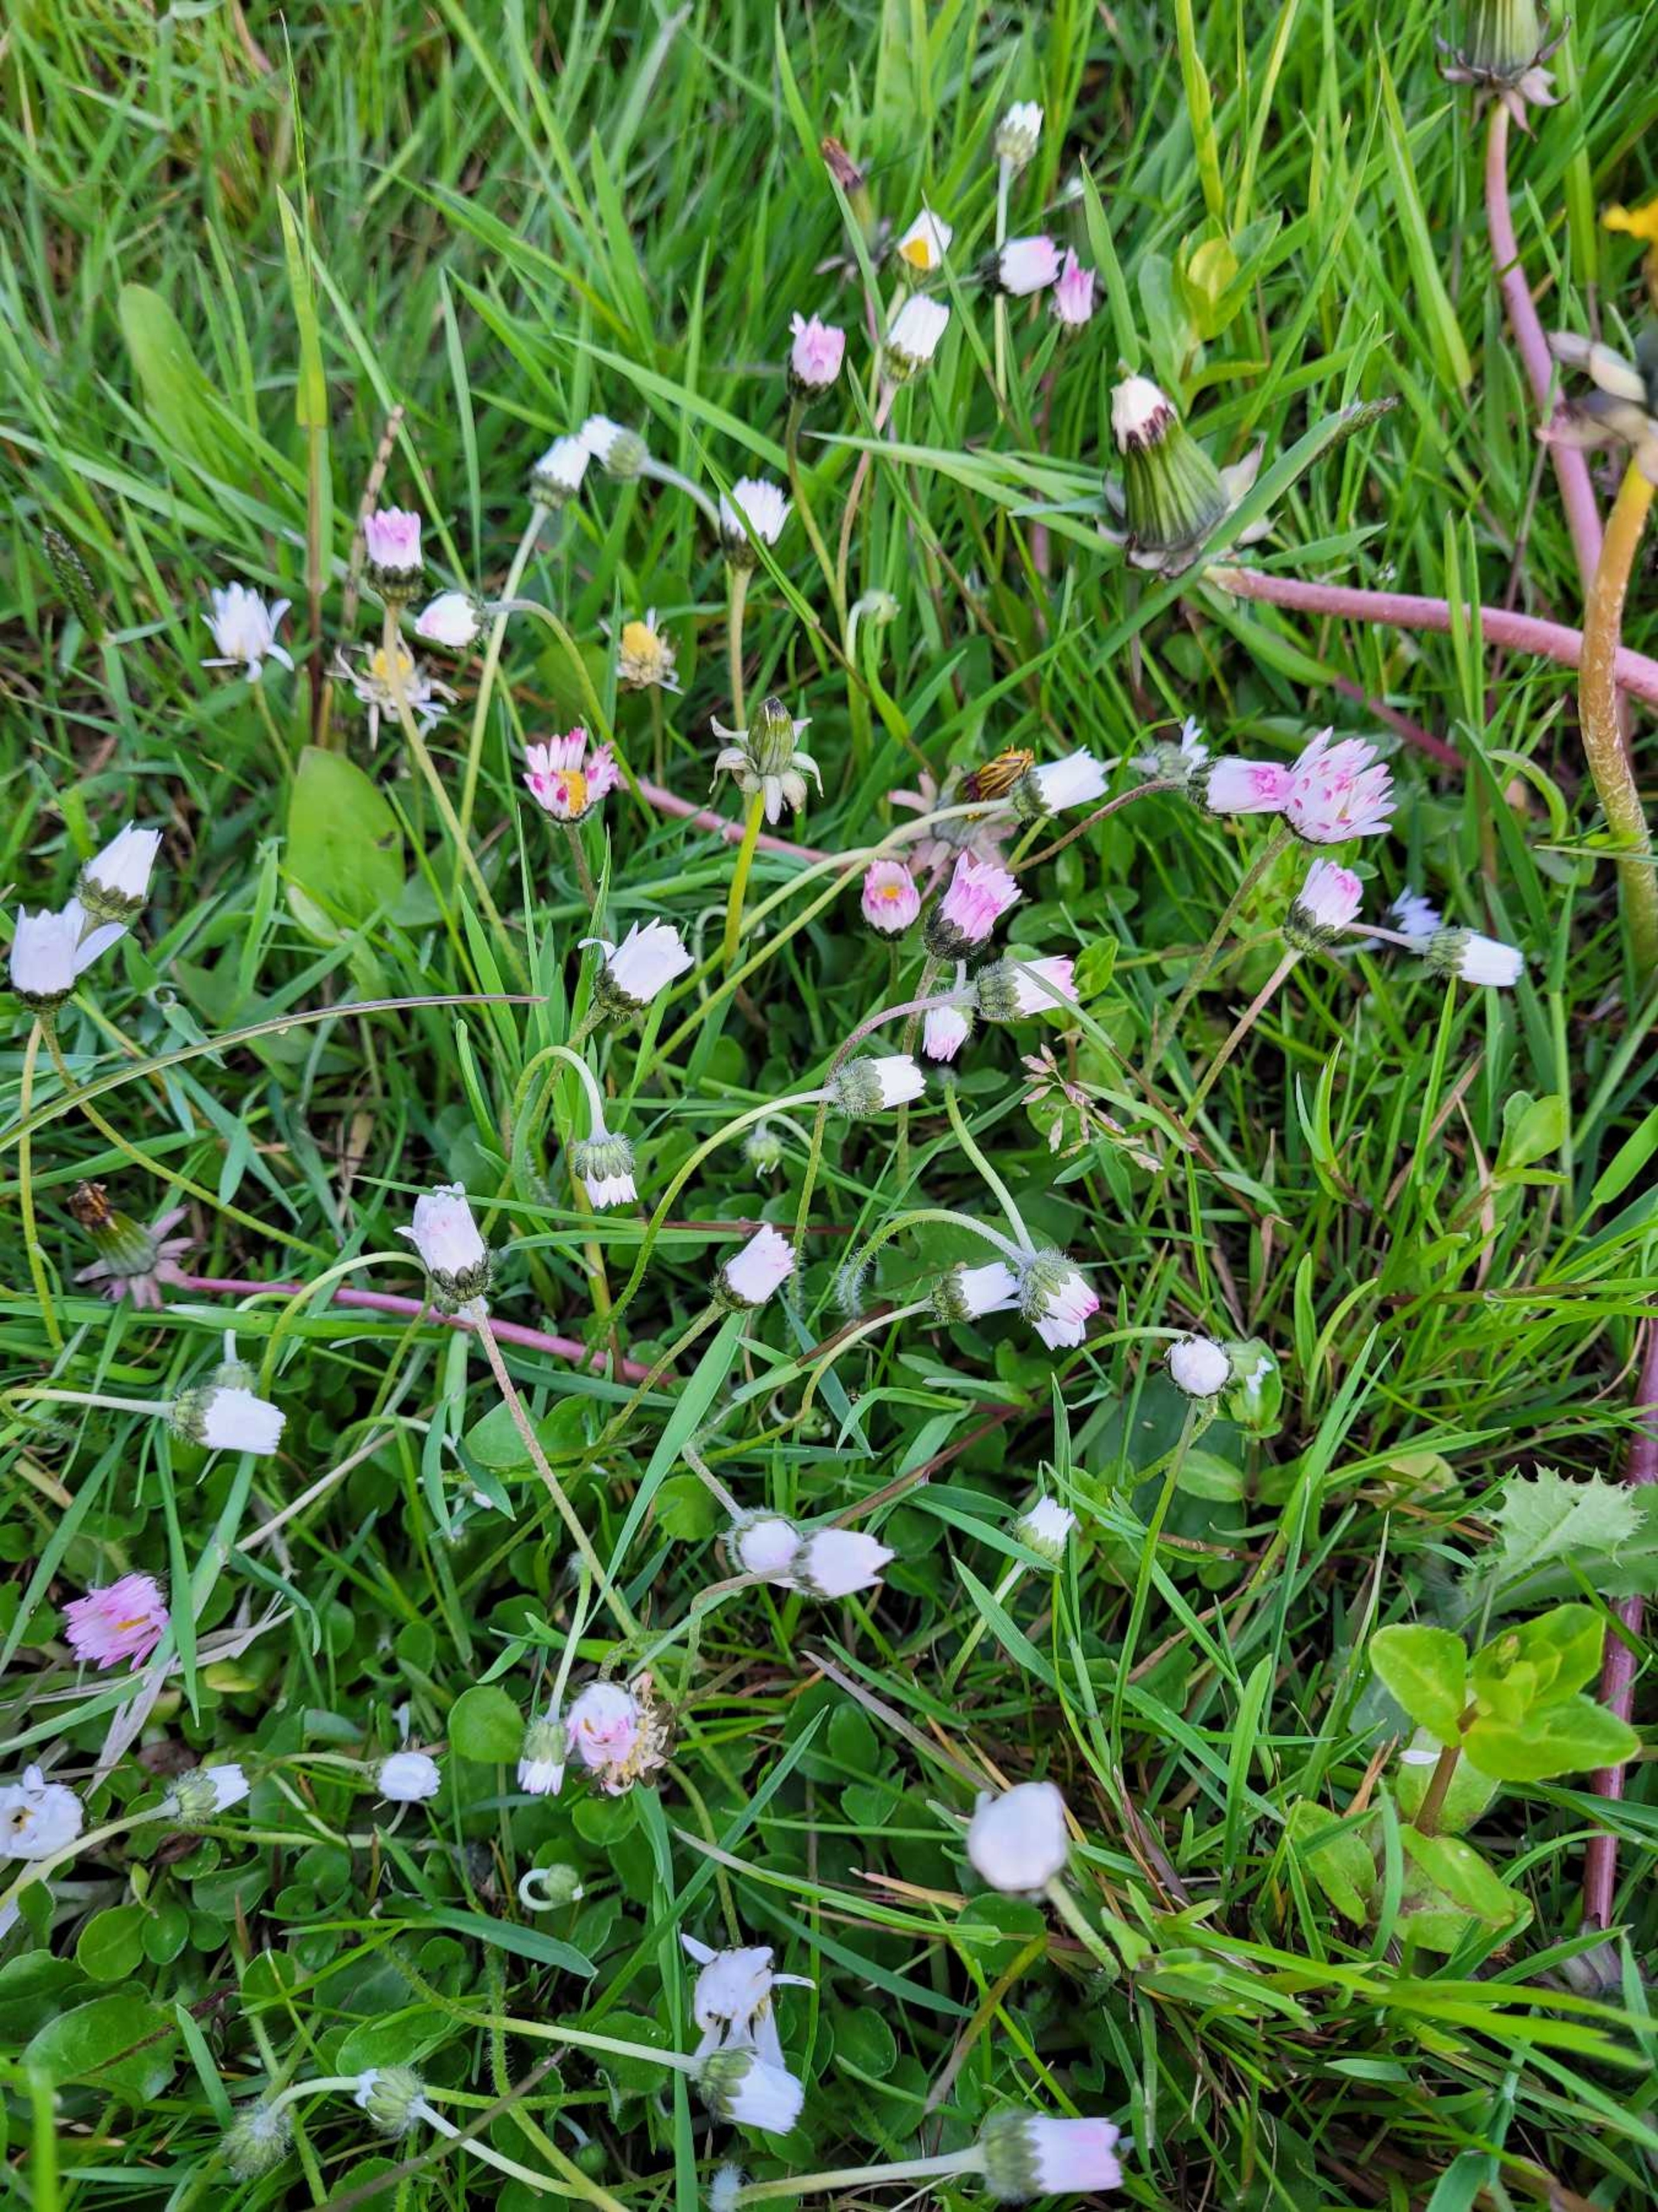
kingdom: Plantae
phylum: Tracheophyta
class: Magnoliopsida
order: Asterales
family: Asteraceae
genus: Bellis
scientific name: Bellis perennis
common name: Tusindfryd
